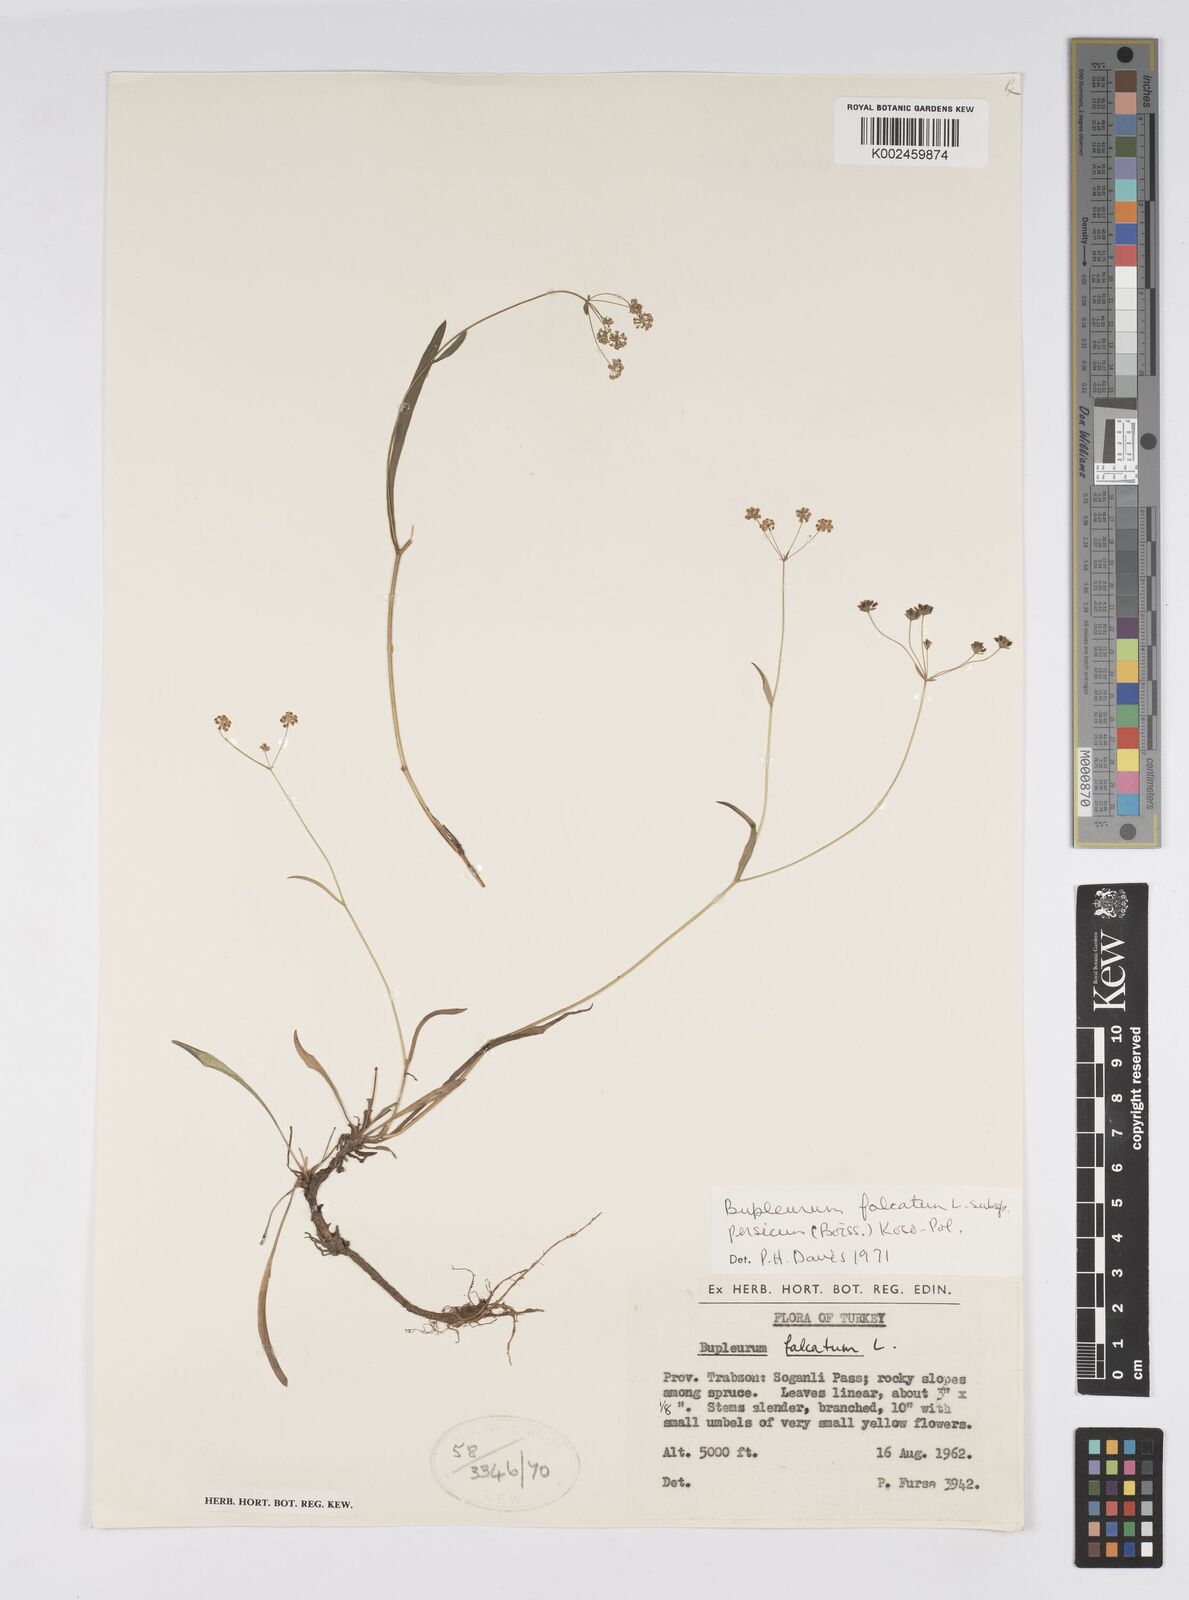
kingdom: Plantae
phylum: Tracheophyta
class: Magnoliopsida
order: Apiales
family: Apiaceae
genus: Bupleurum
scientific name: Bupleurum falcatum
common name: Sickle-leaved hare's-ear
